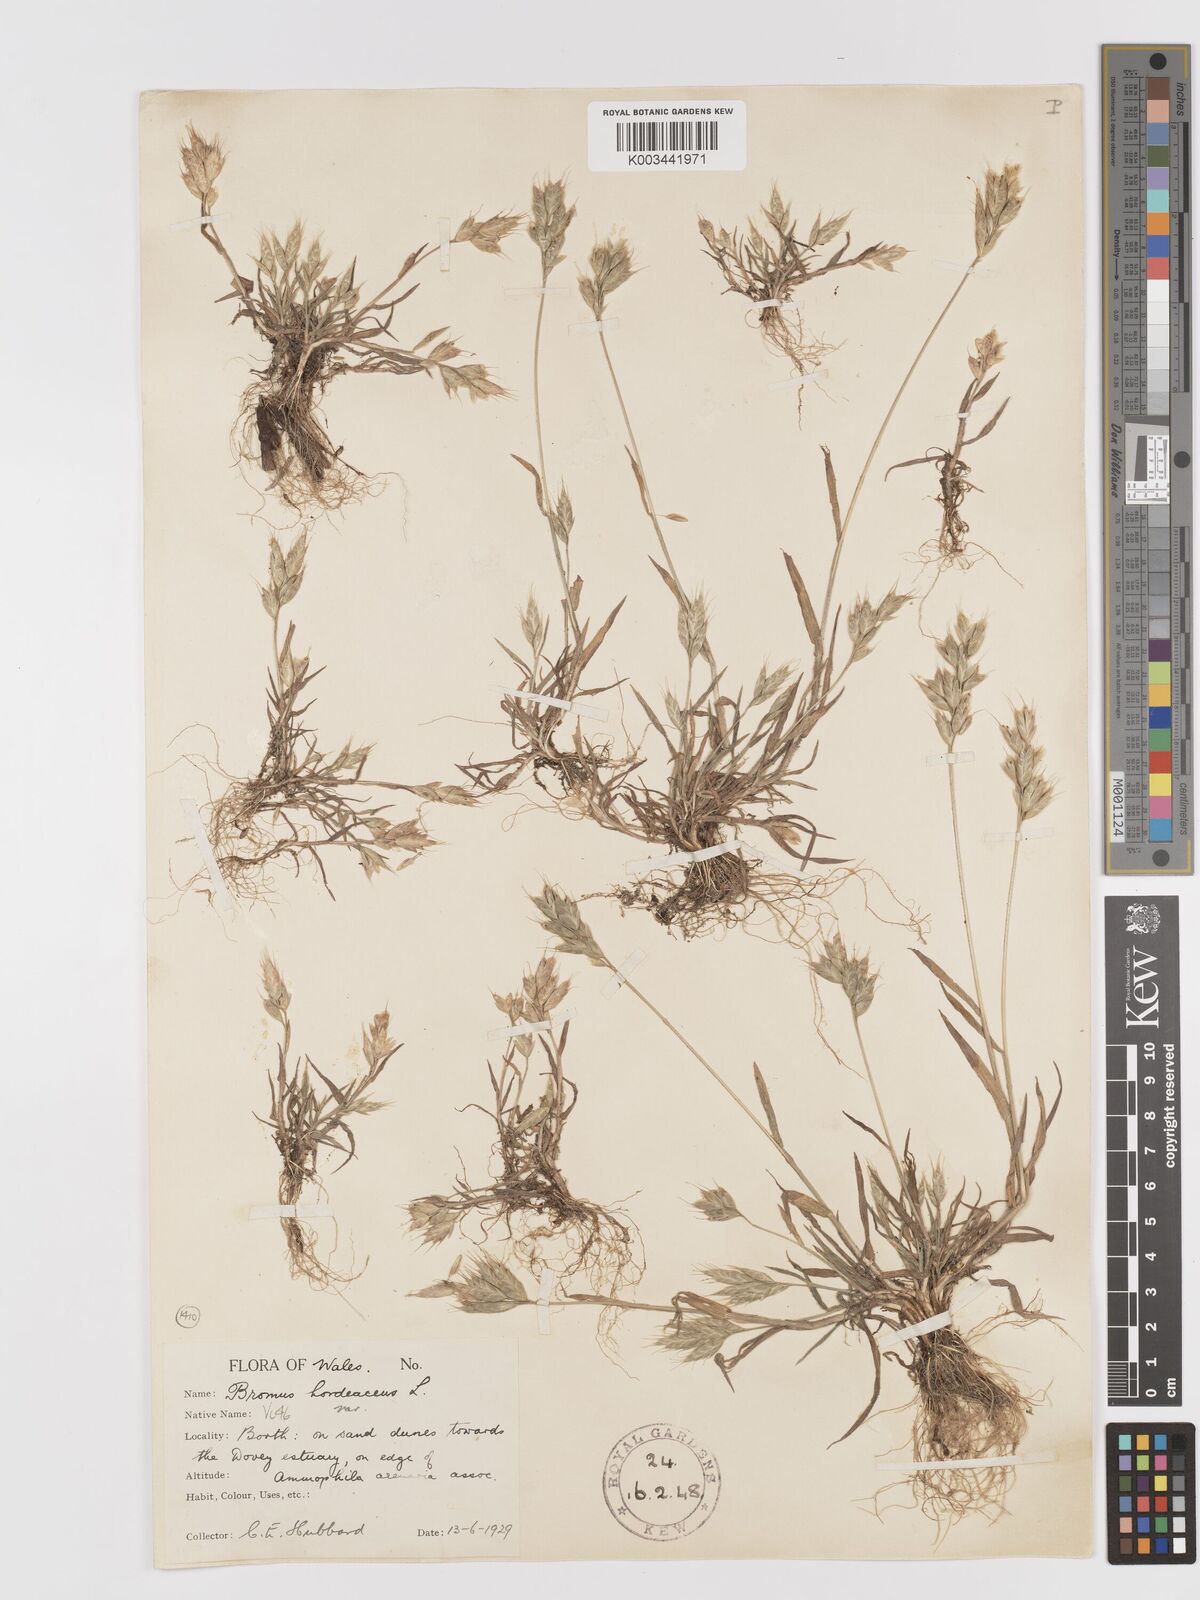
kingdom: Plantae
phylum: Tracheophyta
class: Liliopsida
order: Poales
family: Poaceae
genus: Bromus
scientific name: Bromus hordeaceus
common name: Soft brome
